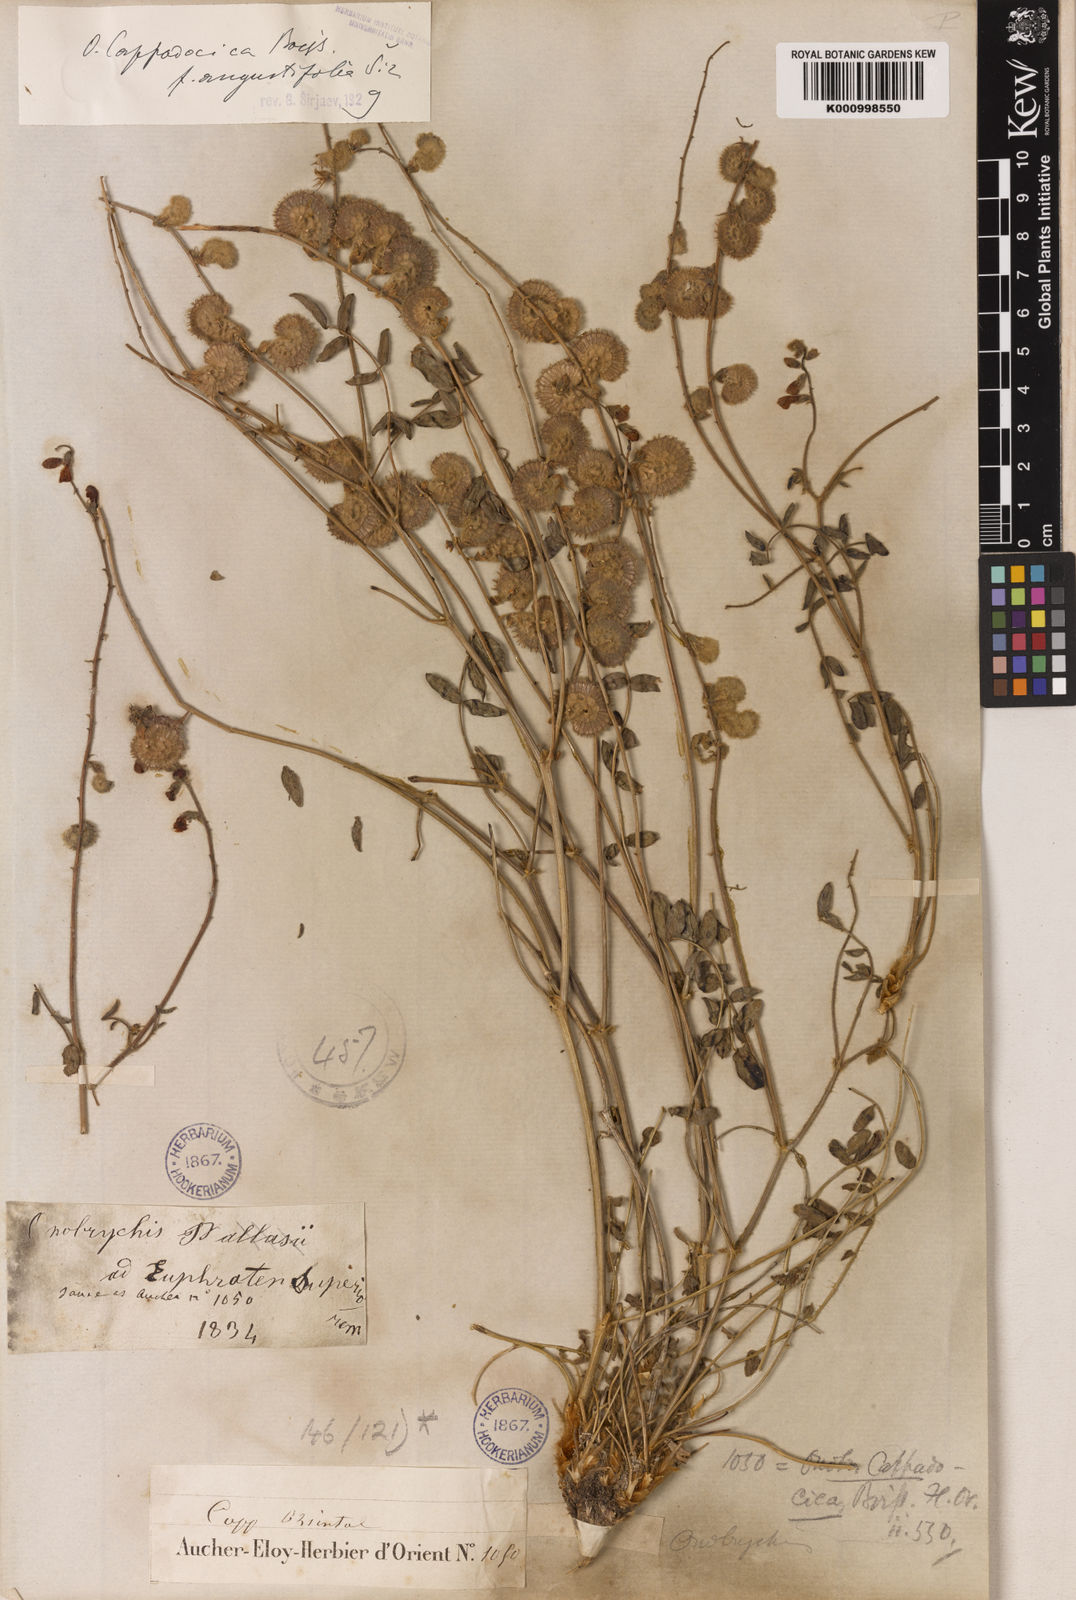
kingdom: Plantae
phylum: Tracheophyta
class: Magnoliopsida
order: Fabales
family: Fabaceae
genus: Onobrychis
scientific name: Onobrychis cappadocica
